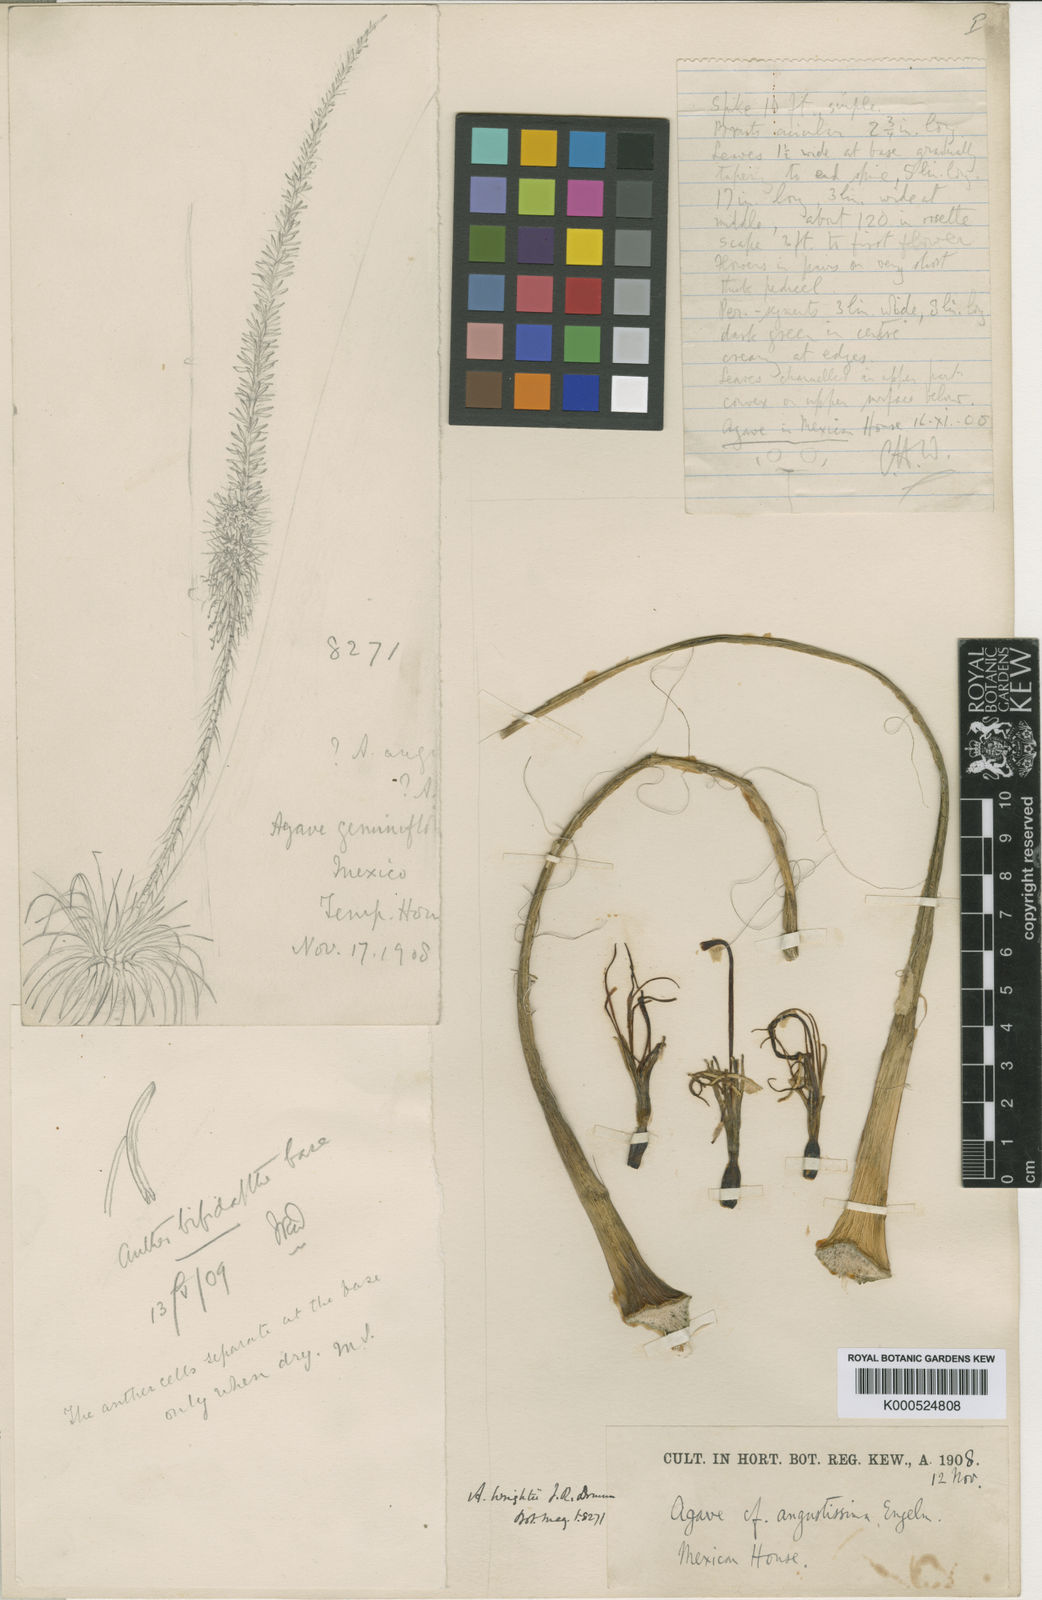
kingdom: Plantae
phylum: Tracheophyta
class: Liliopsida
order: Asparagales
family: Asparagaceae
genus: Agave
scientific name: Agave geminiflora
